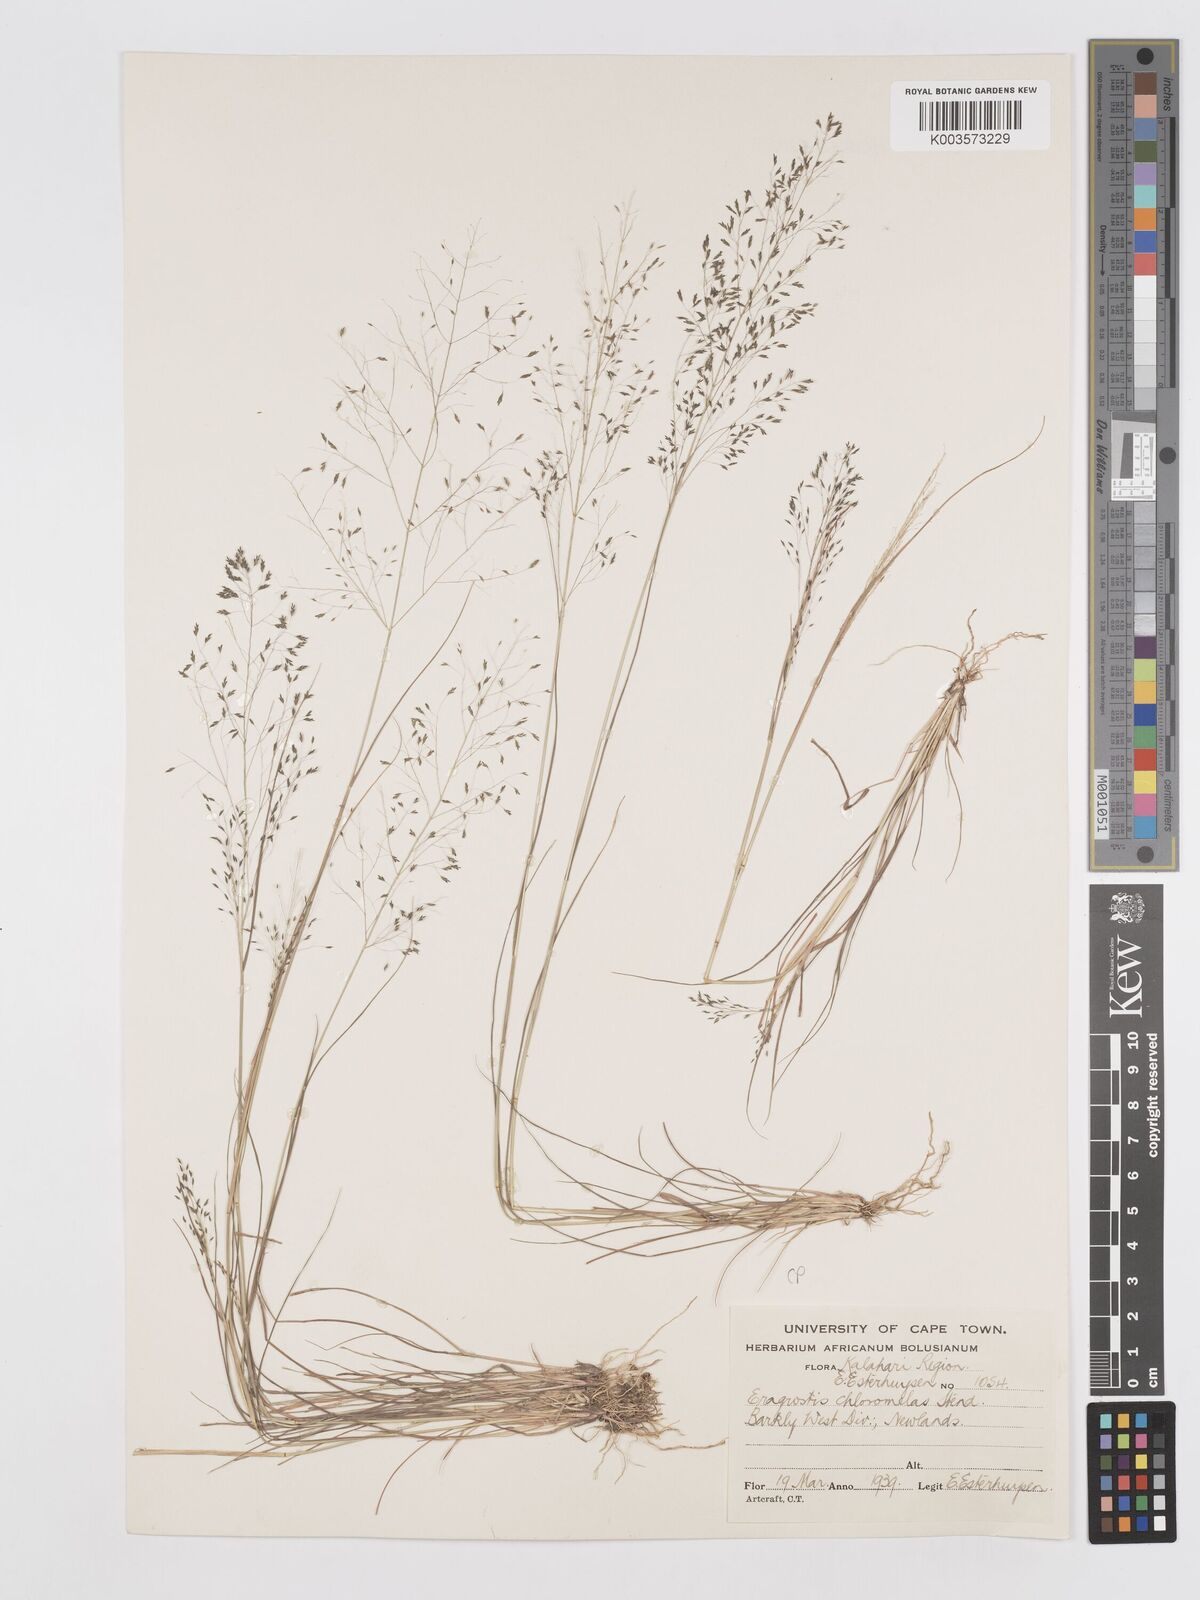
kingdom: Plantae
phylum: Tracheophyta
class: Liliopsida
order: Poales
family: Poaceae
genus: Eragrostis
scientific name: Eragrostis curvula
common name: African love-grass
